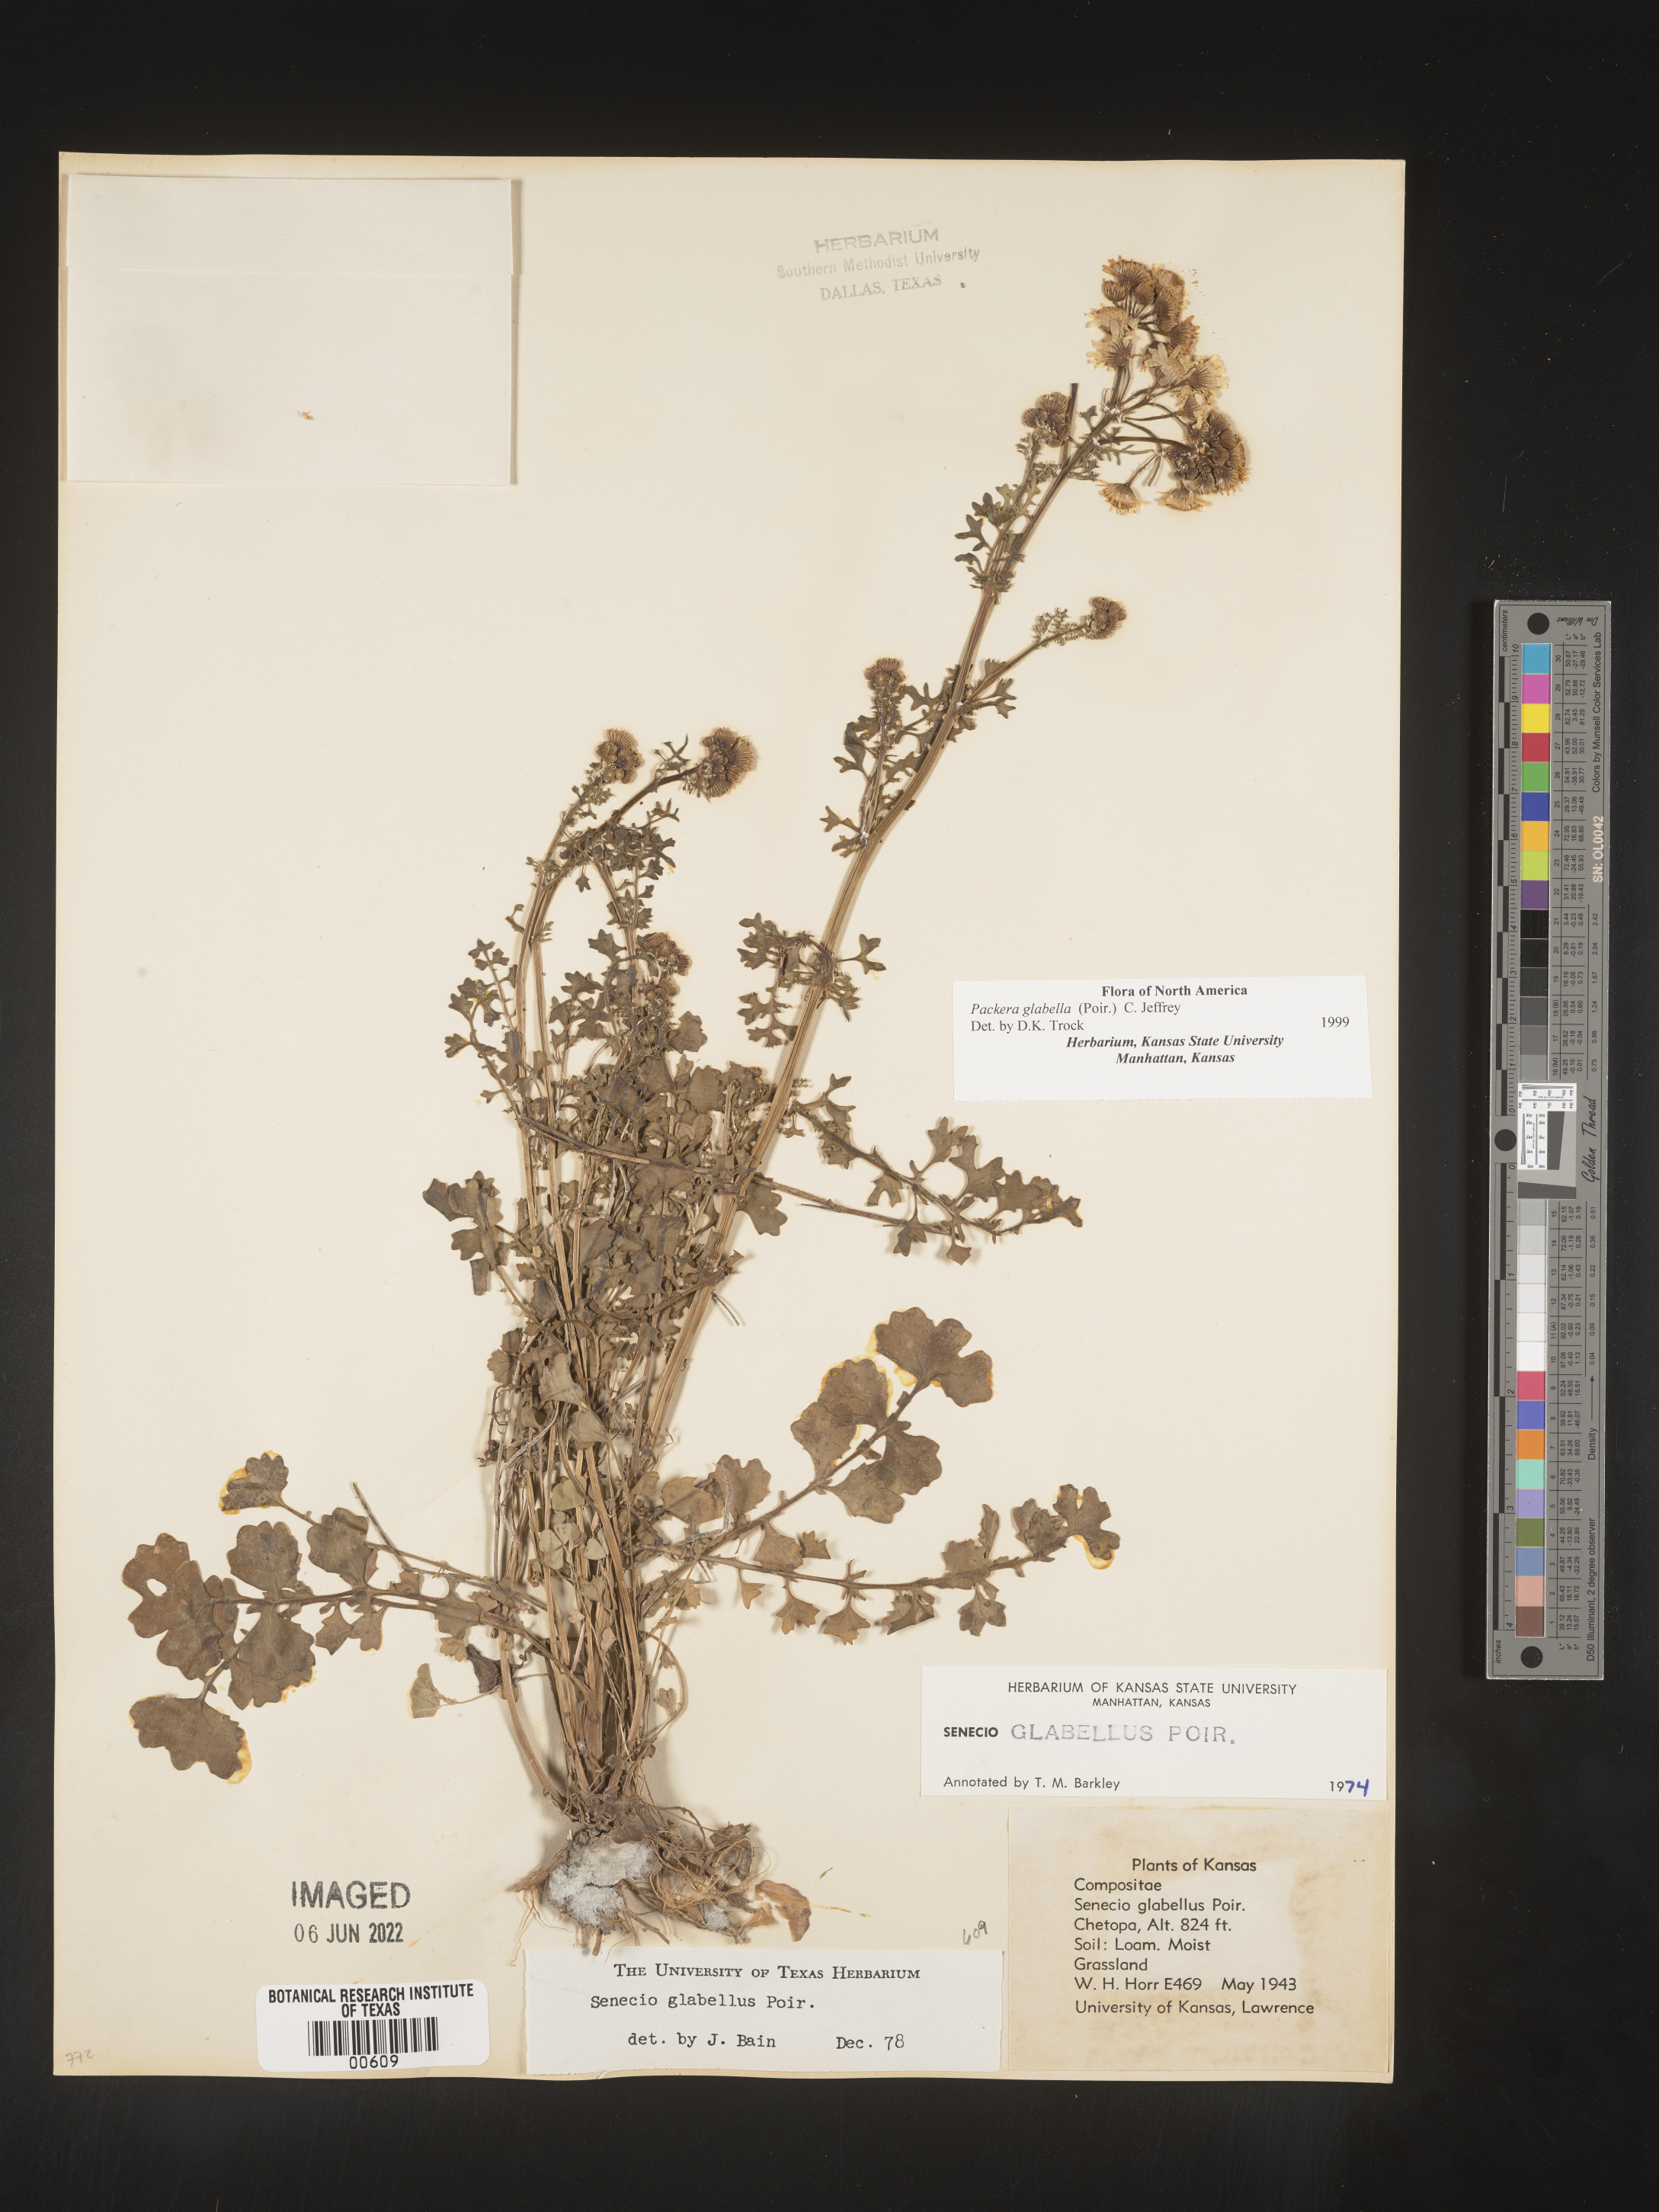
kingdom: Plantae
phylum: Tracheophyta
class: Magnoliopsida
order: Asterales
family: Asteraceae
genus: Packera
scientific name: Packera glabella
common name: Butterweed
